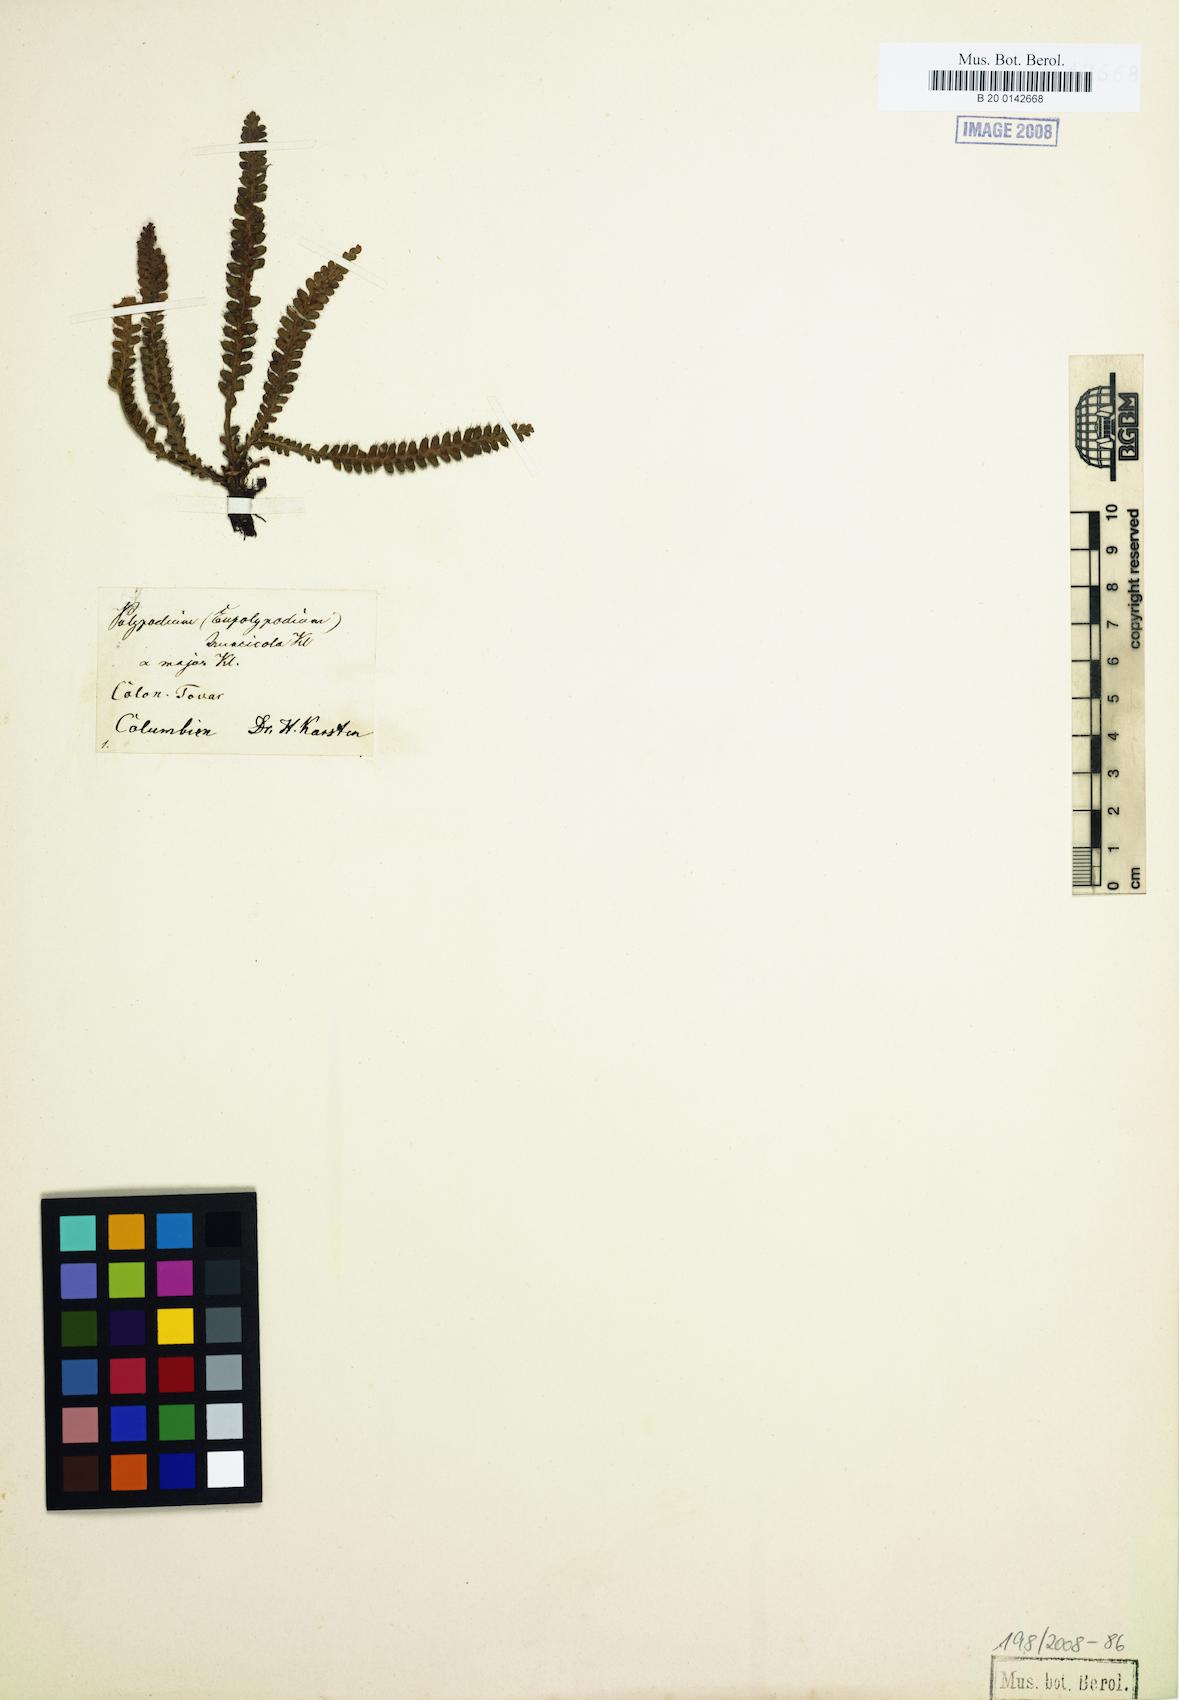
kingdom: Plantae
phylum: Tracheophyta
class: Polypodiopsida
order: Polypodiales
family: Polypodiaceae
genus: Moranopteris
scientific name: Moranopteris truncicola
